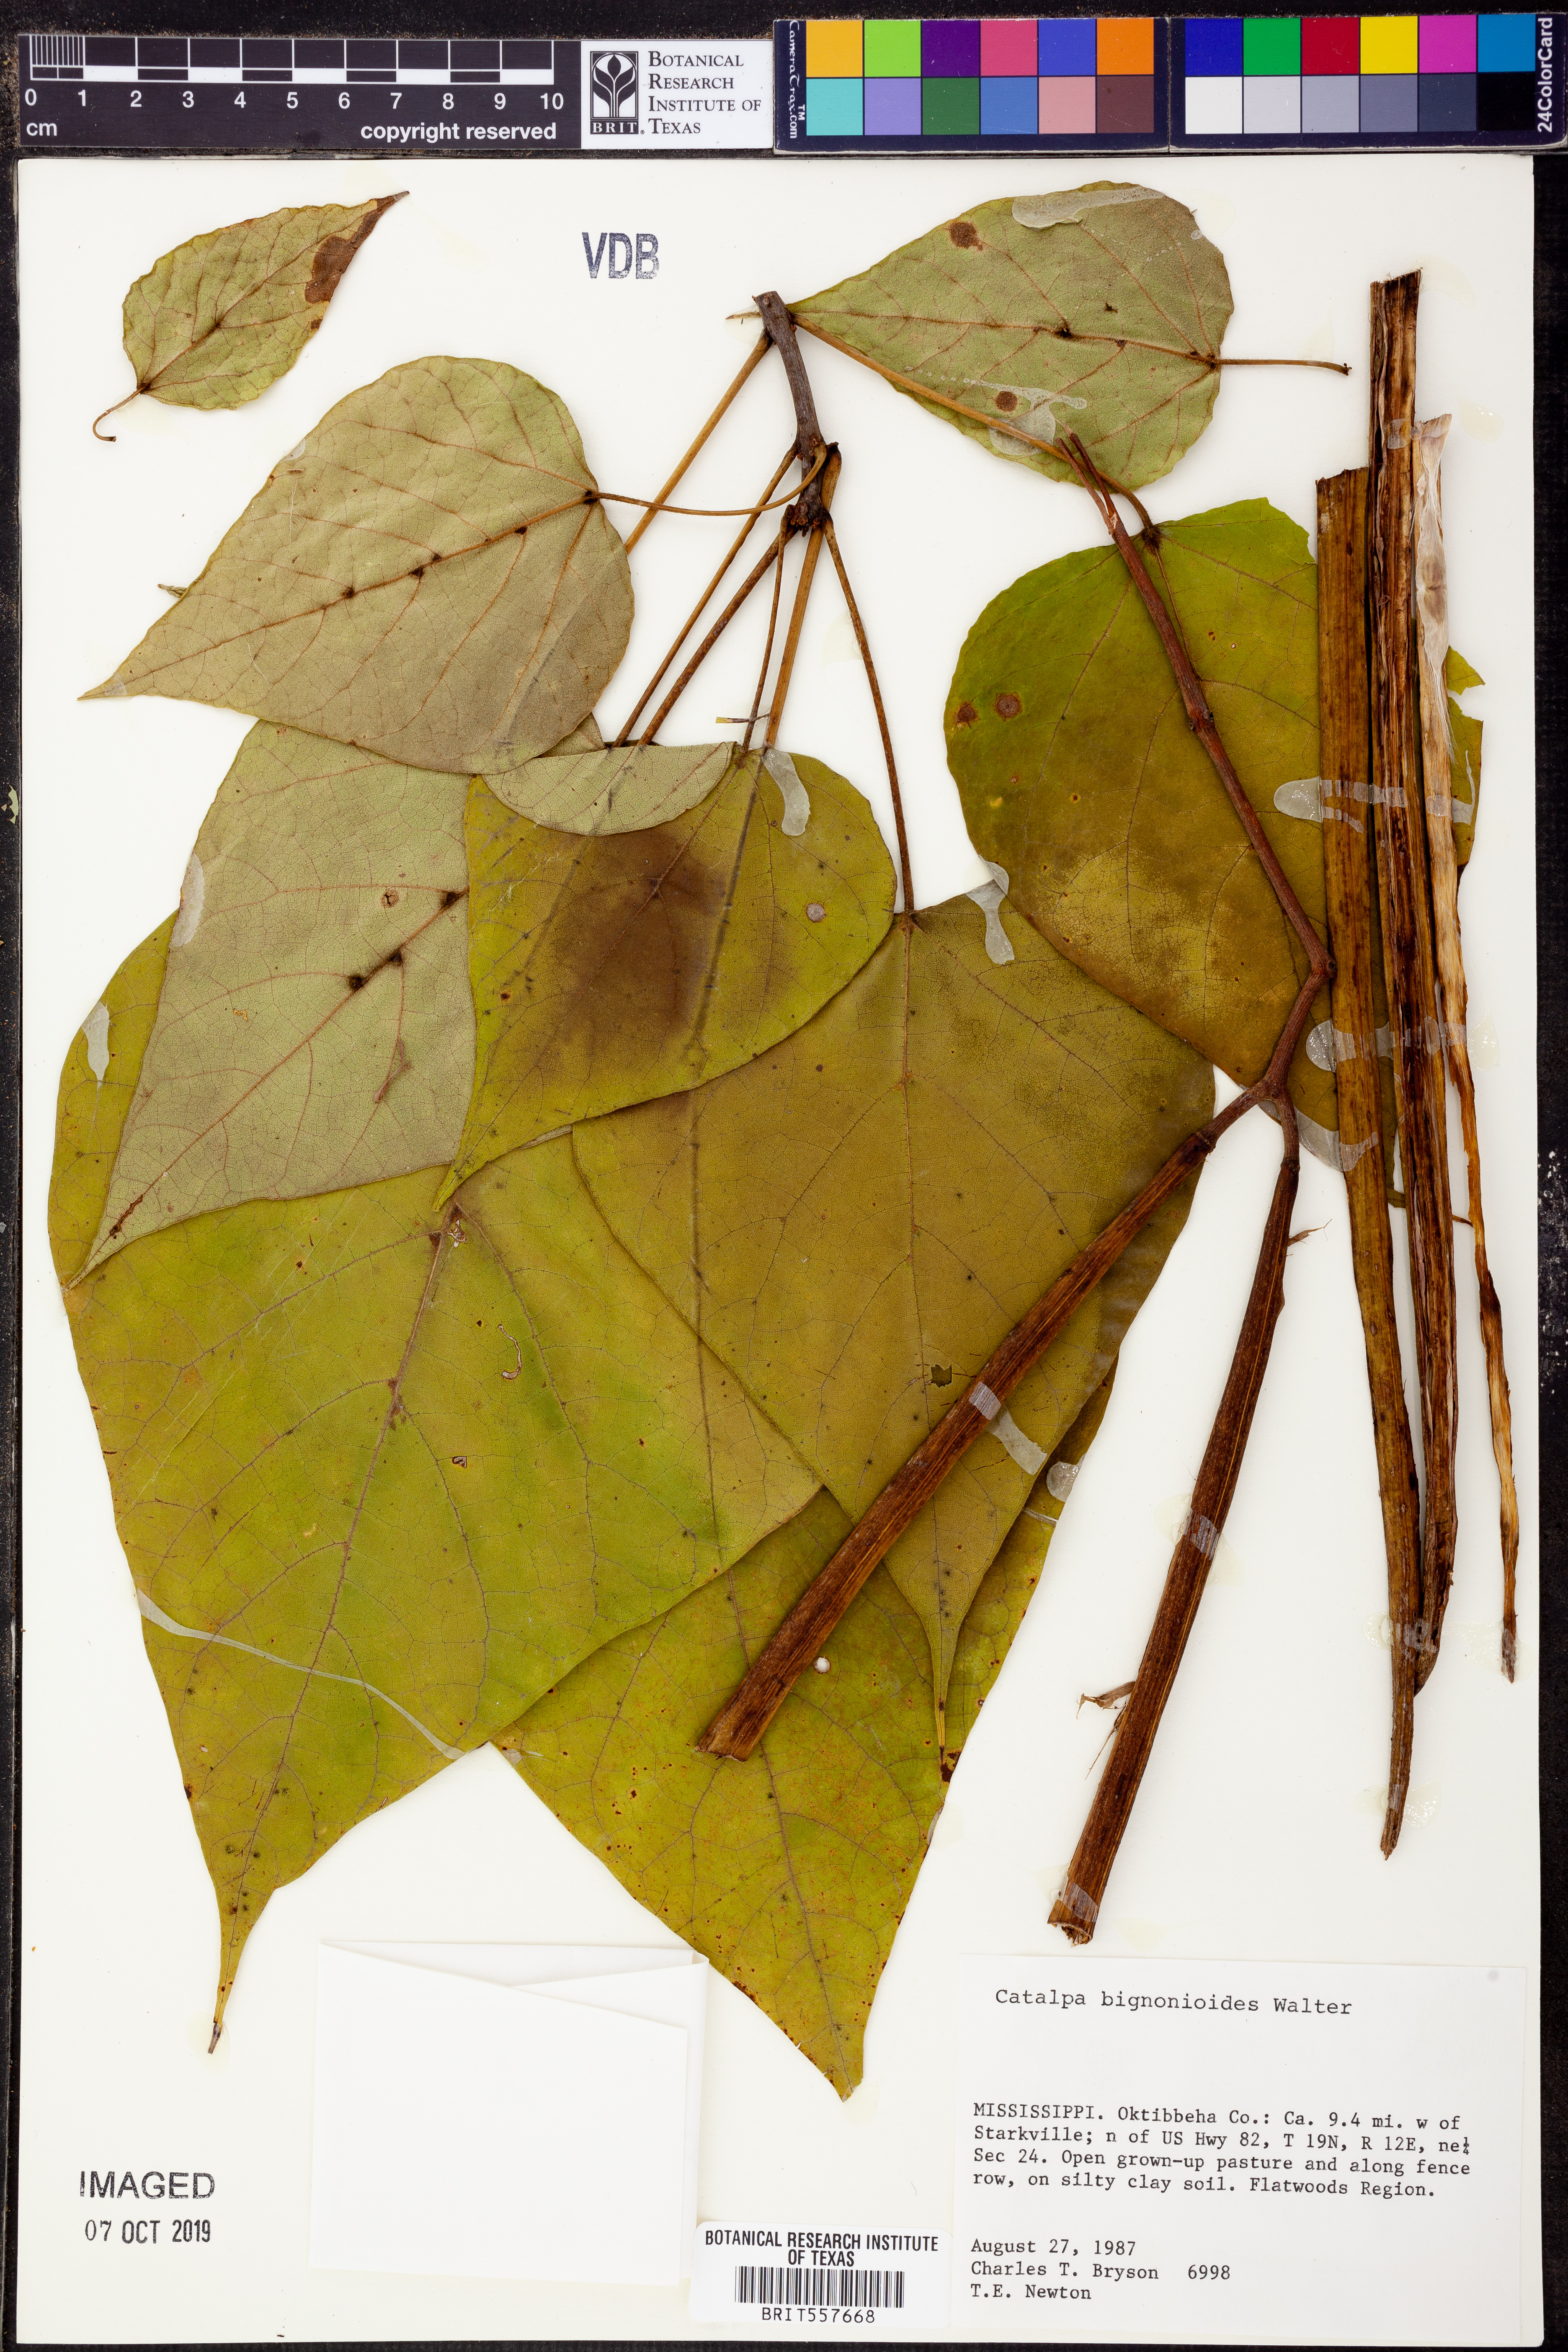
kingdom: Plantae
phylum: Tracheophyta
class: Magnoliopsida
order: Lamiales
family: Bignoniaceae
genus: Catalpa
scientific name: Catalpa bignonioides
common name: Southern catalpa
